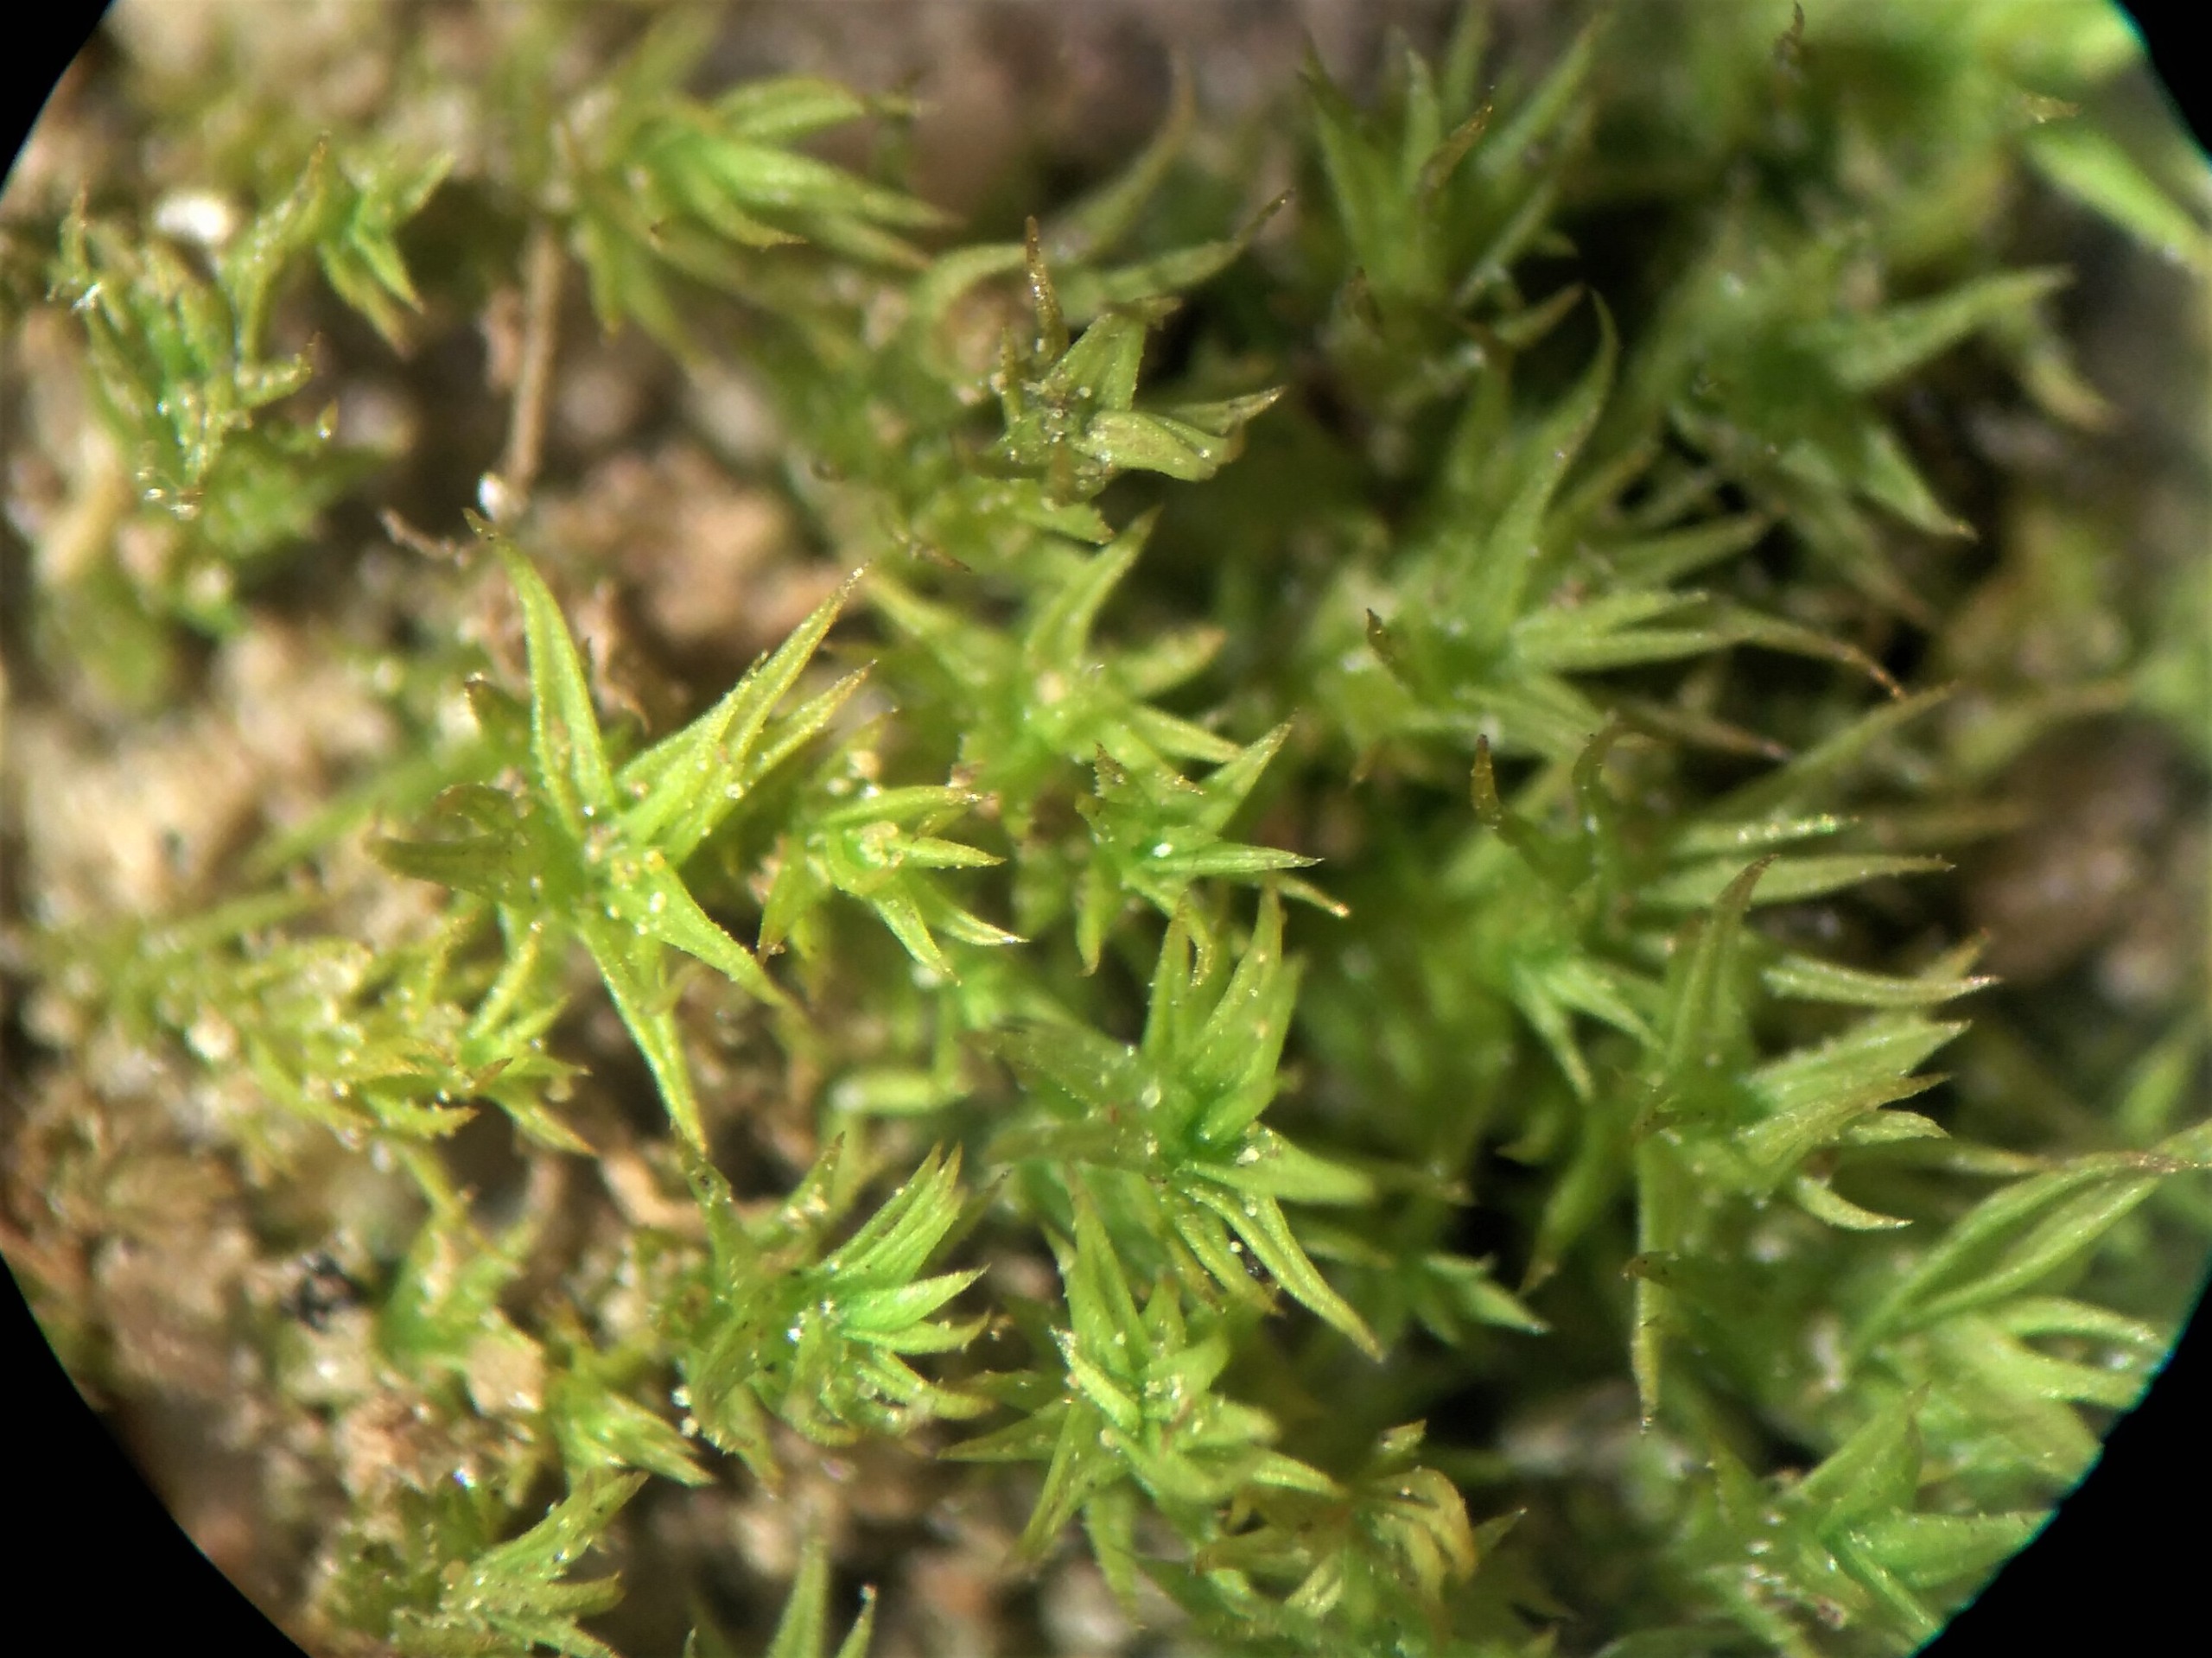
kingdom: Plantae
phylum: Bryophyta
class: Bryopsida
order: Pottiales
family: Pottiaceae
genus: Pseudocrossidium
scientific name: Pseudocrossidium hornschuchianum
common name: Spids rullerand
